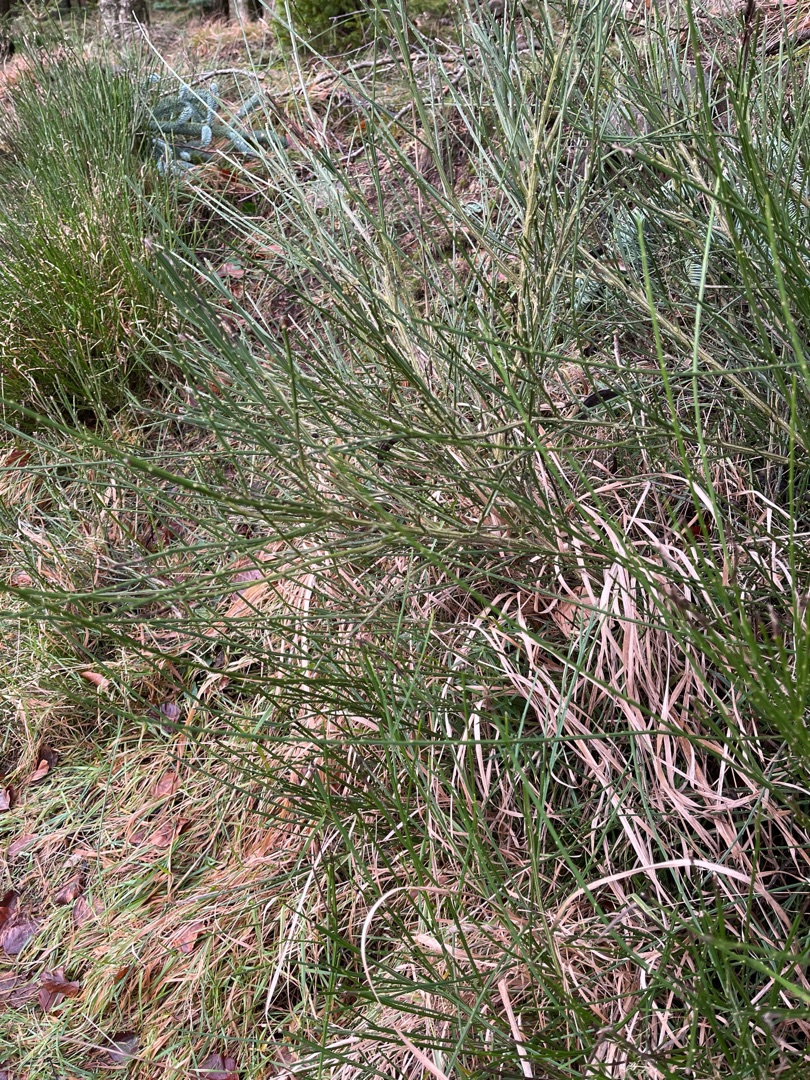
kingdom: Plantae
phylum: Tracheophyta
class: Magnoliopsida
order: Fabales
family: Fabaceae
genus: Cytisus
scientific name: Cytisus scoparius
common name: Almindelig gyvel
